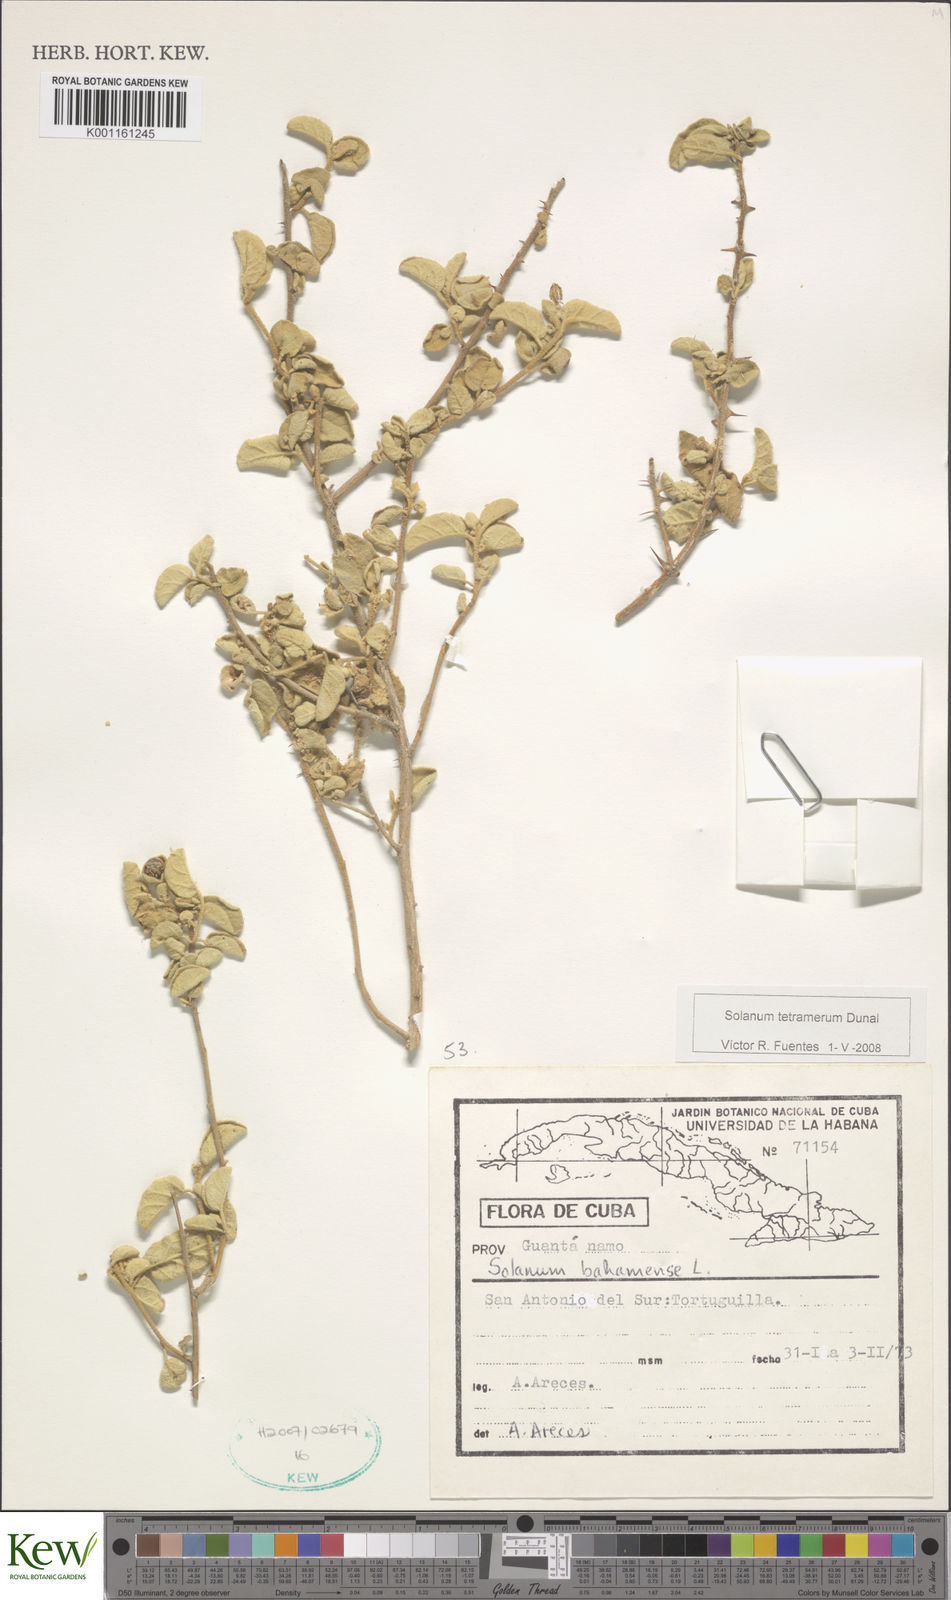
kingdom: Plantae
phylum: Tracheophyta
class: Magnoliopsida
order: Solanales
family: Solanaceae
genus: Solanum
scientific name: Solanum tetramerum
